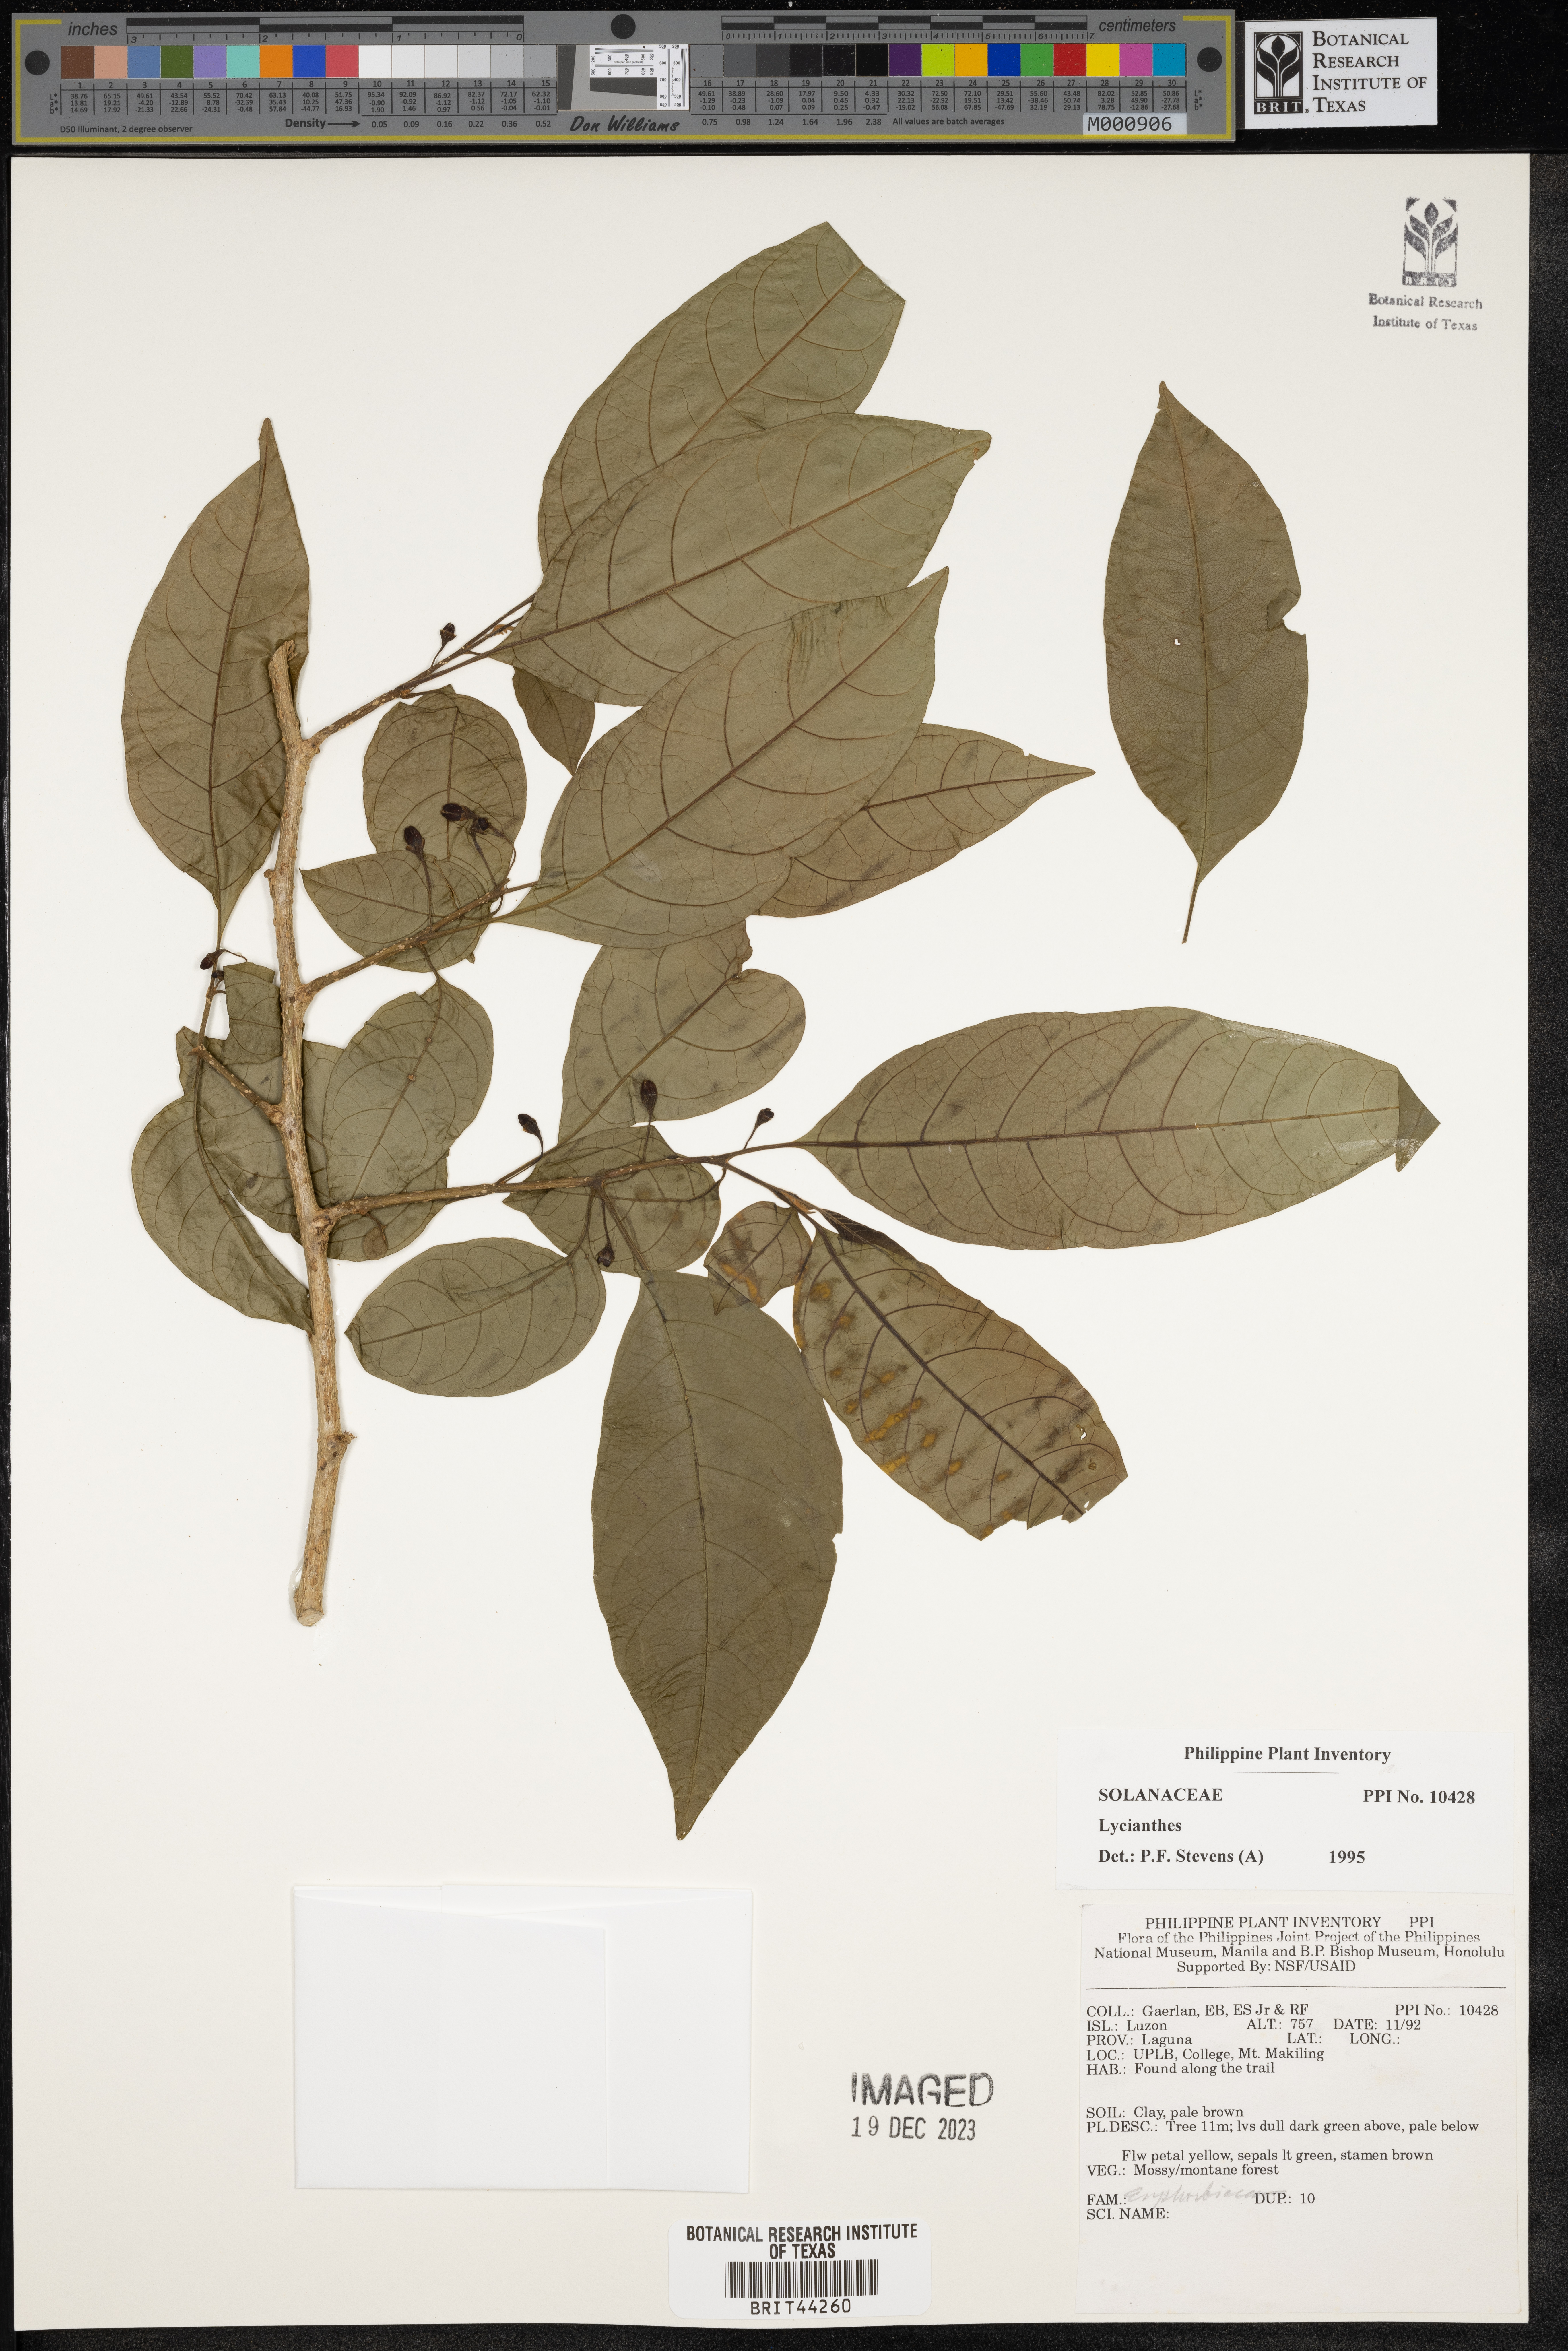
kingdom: Plantae
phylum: Tracheophyta
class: Magnoliopsida
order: Solanales
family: Solanaceae
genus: Lycianthes
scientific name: Lycianthes
